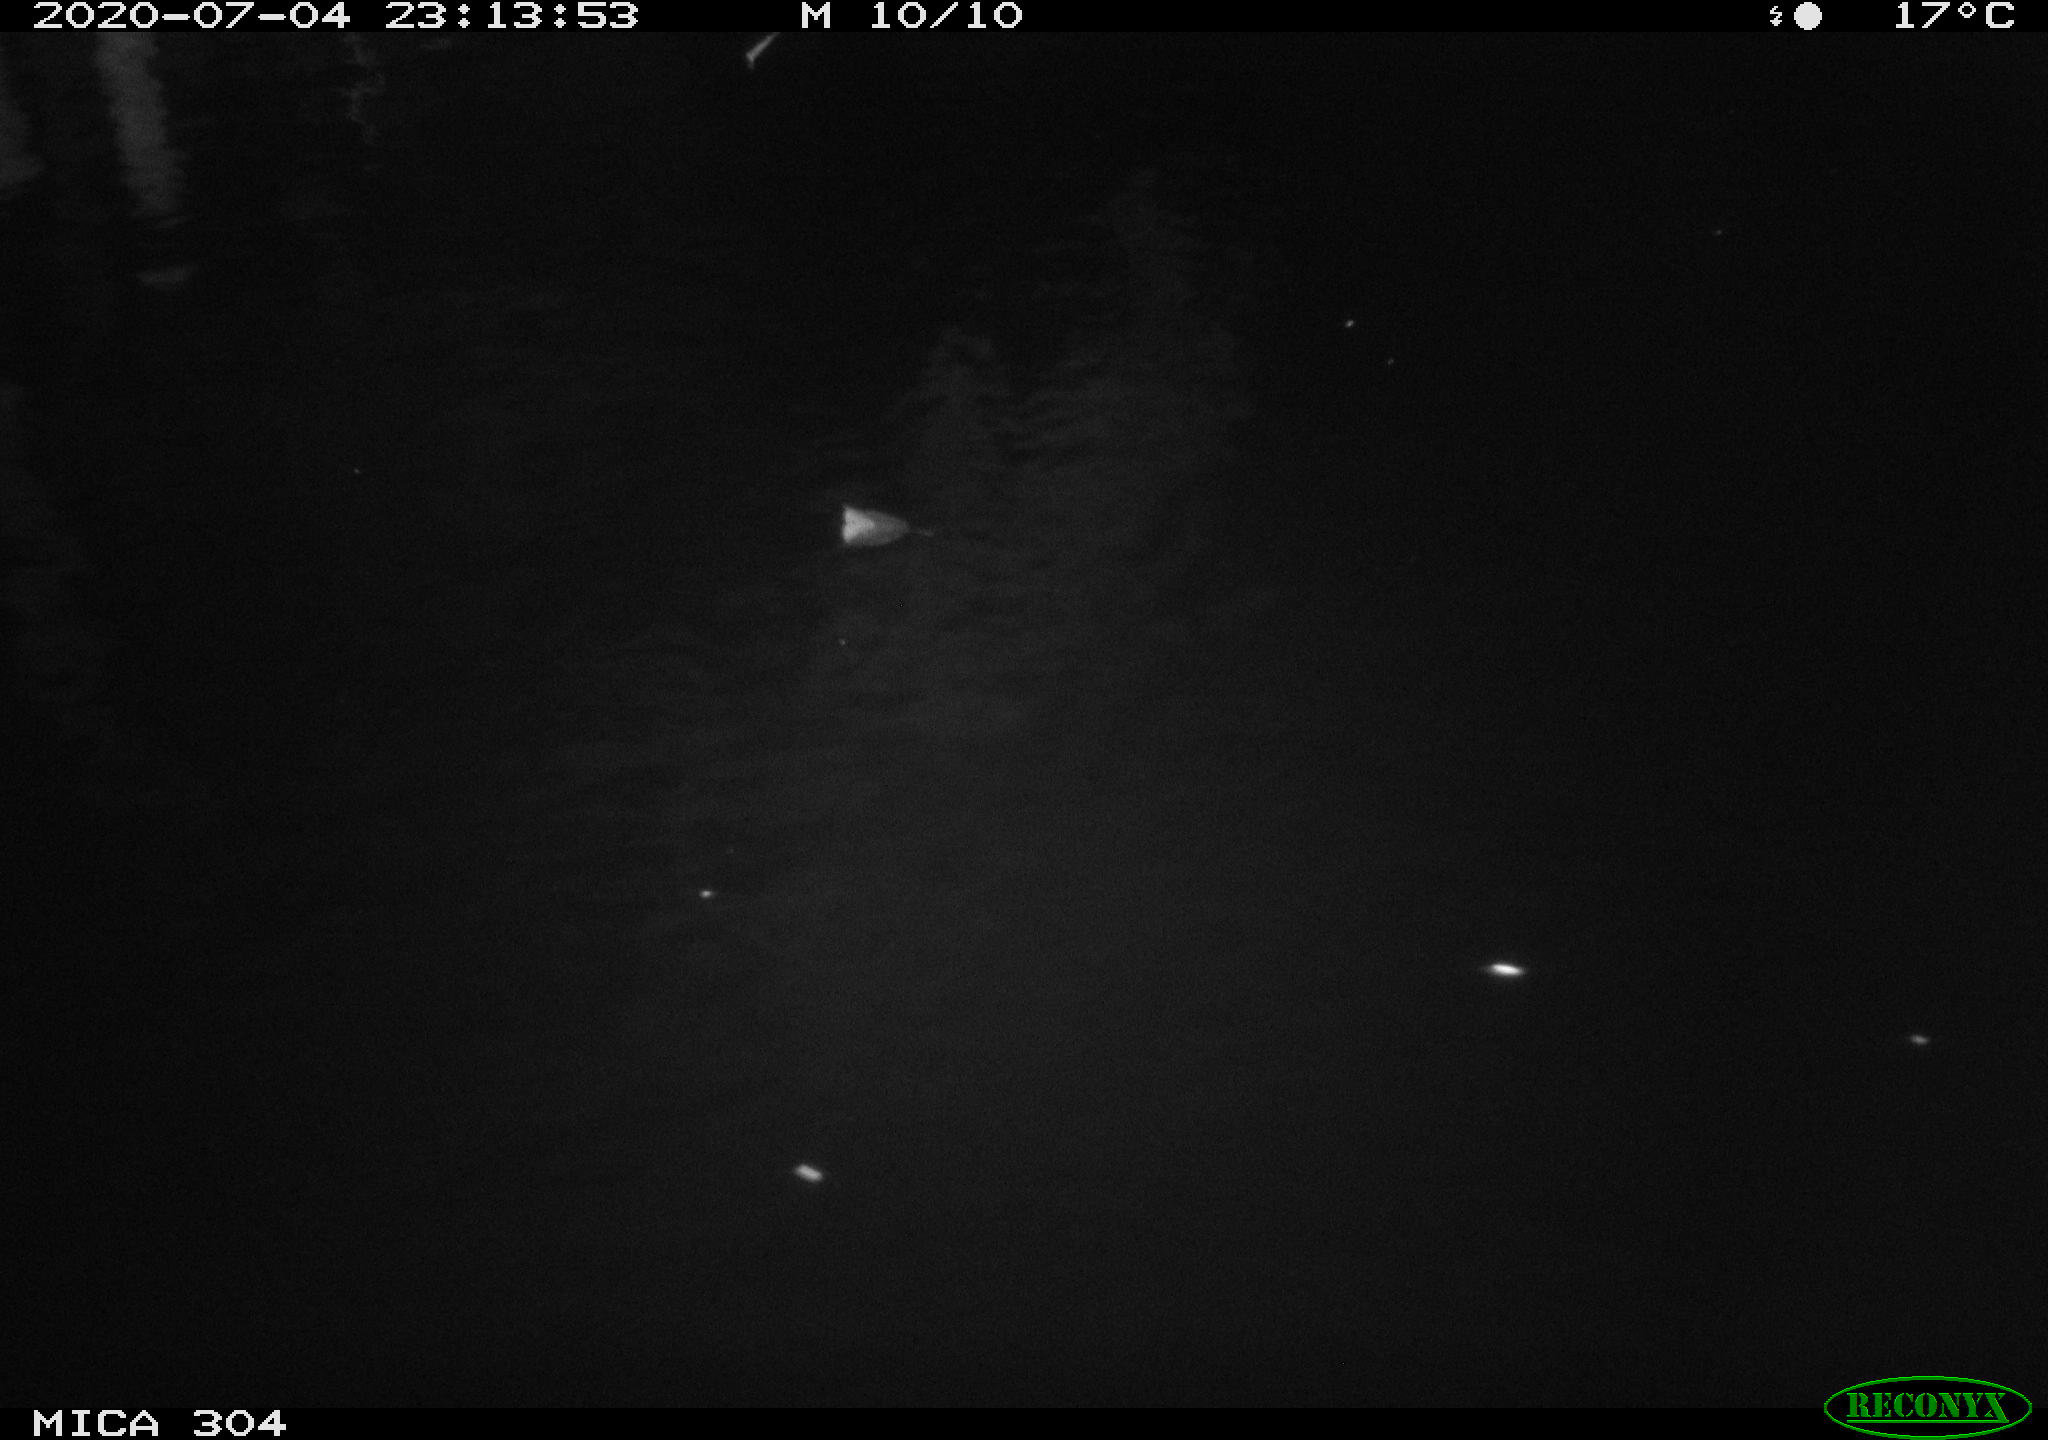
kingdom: Animalia
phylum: Chordata
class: Aves
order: Anseriformes
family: Anatidae
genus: Anas
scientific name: Anas platyrhynchos
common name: Mallard
